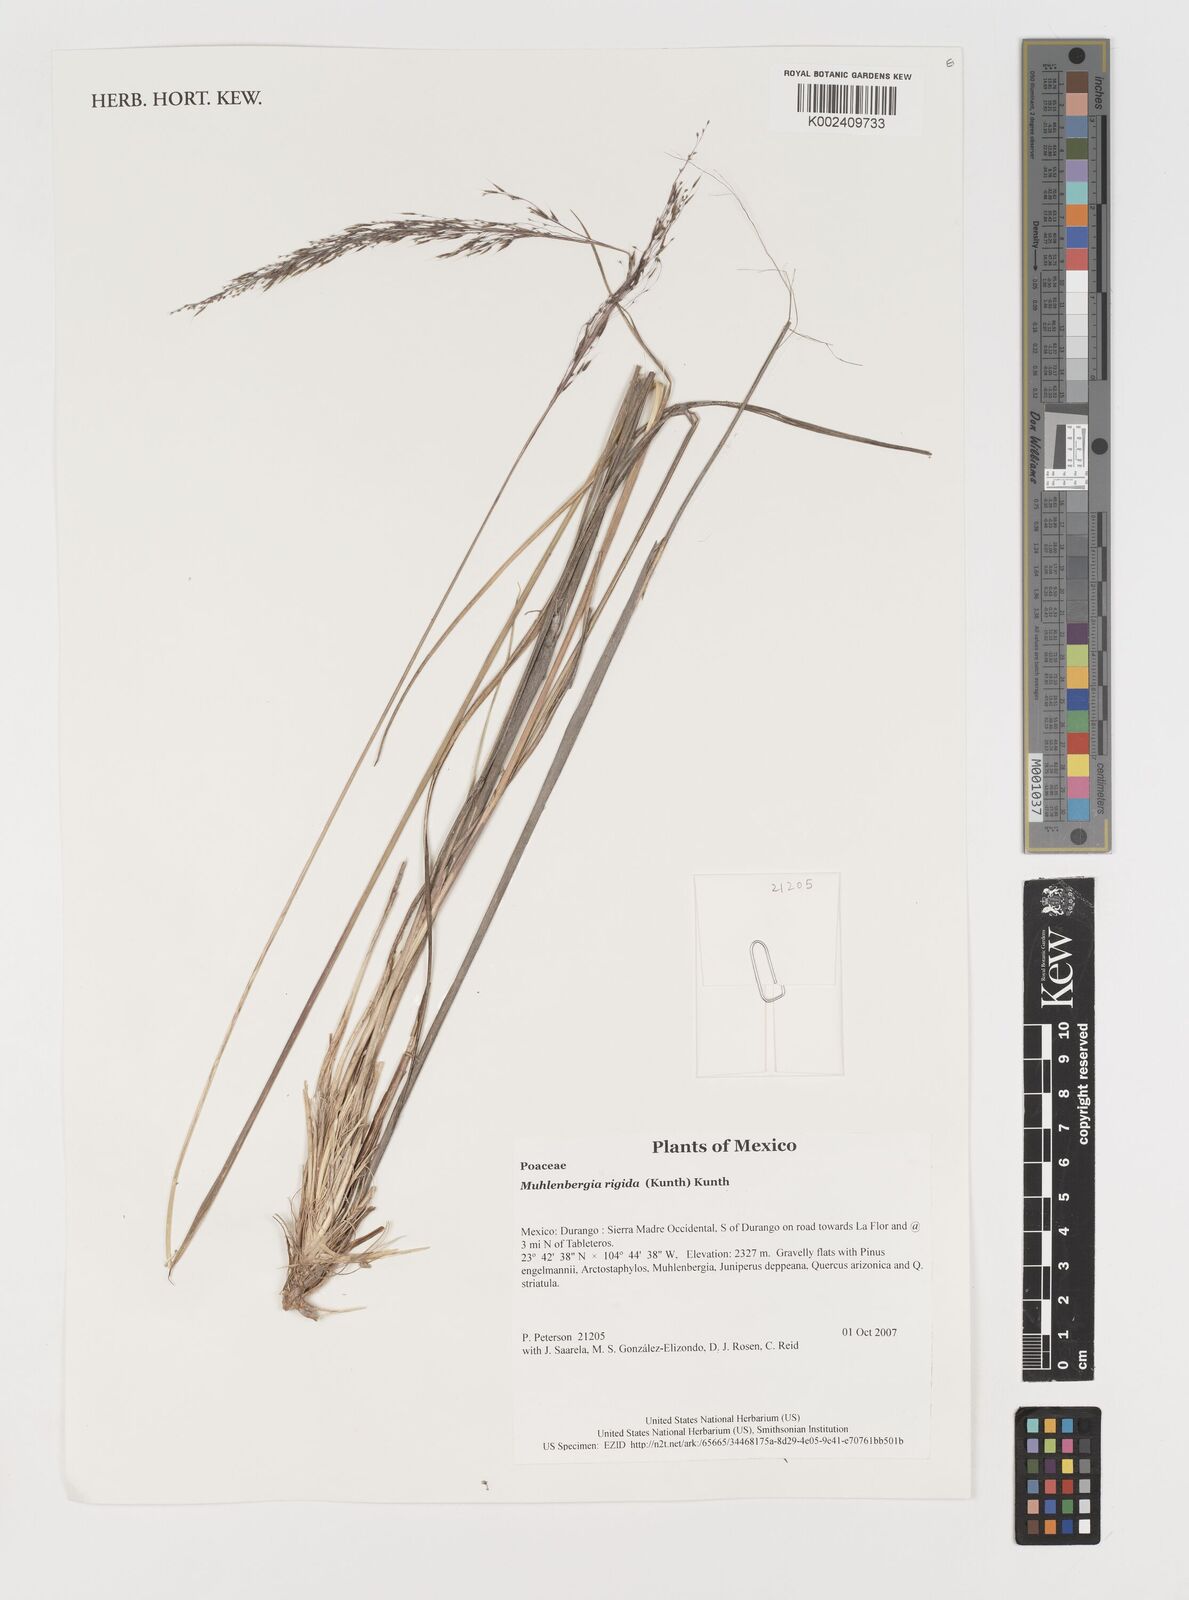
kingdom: Plantae
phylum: Tracheophyta
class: Liliopsida
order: Poales
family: Poaceae
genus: Muhlenbergia
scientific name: Muhlenbergia rigida
